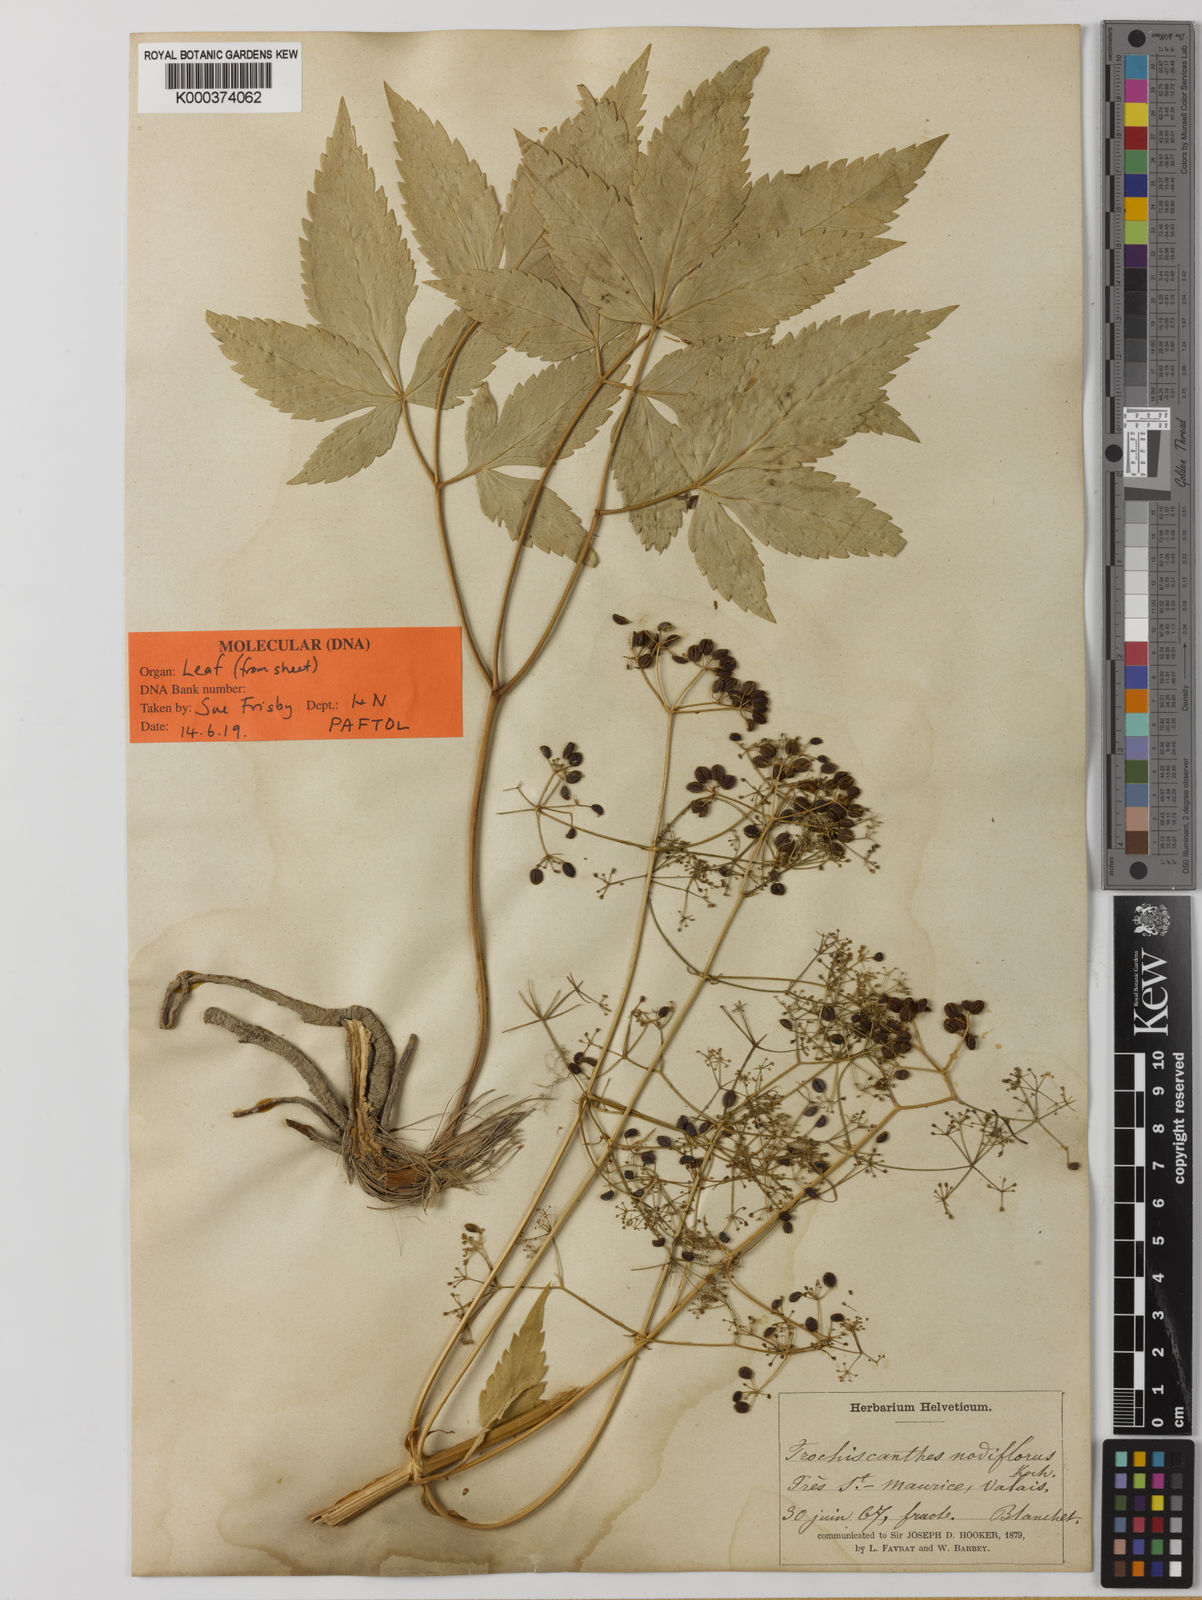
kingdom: Plantae
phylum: Tracheophyta
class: Magnoliopsida
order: Apiales
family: Apiaceae
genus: Trochiscanthes
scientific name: Trochiscanthes nodiflora
